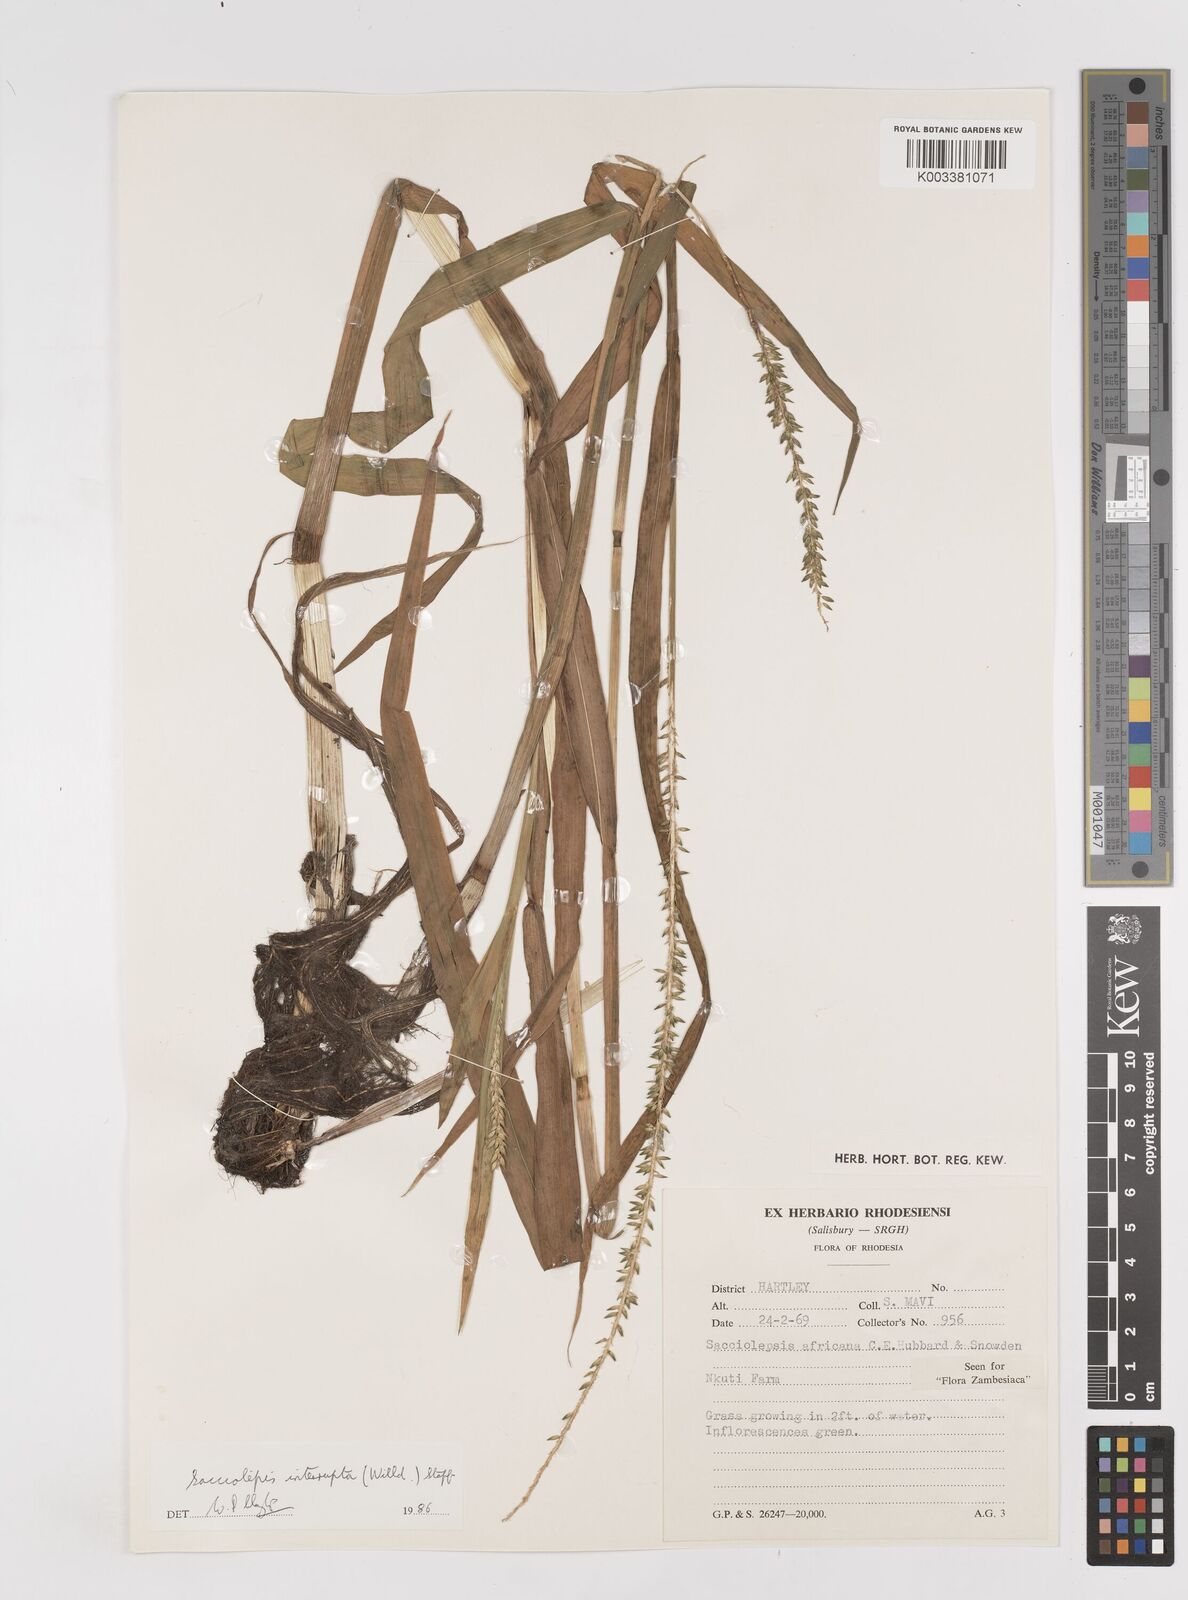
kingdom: Plantae
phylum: Tracheophyta
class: Liliopsida
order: Poales
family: Poaceae
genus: Sacciolepis
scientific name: Sacciolepis interrupta
